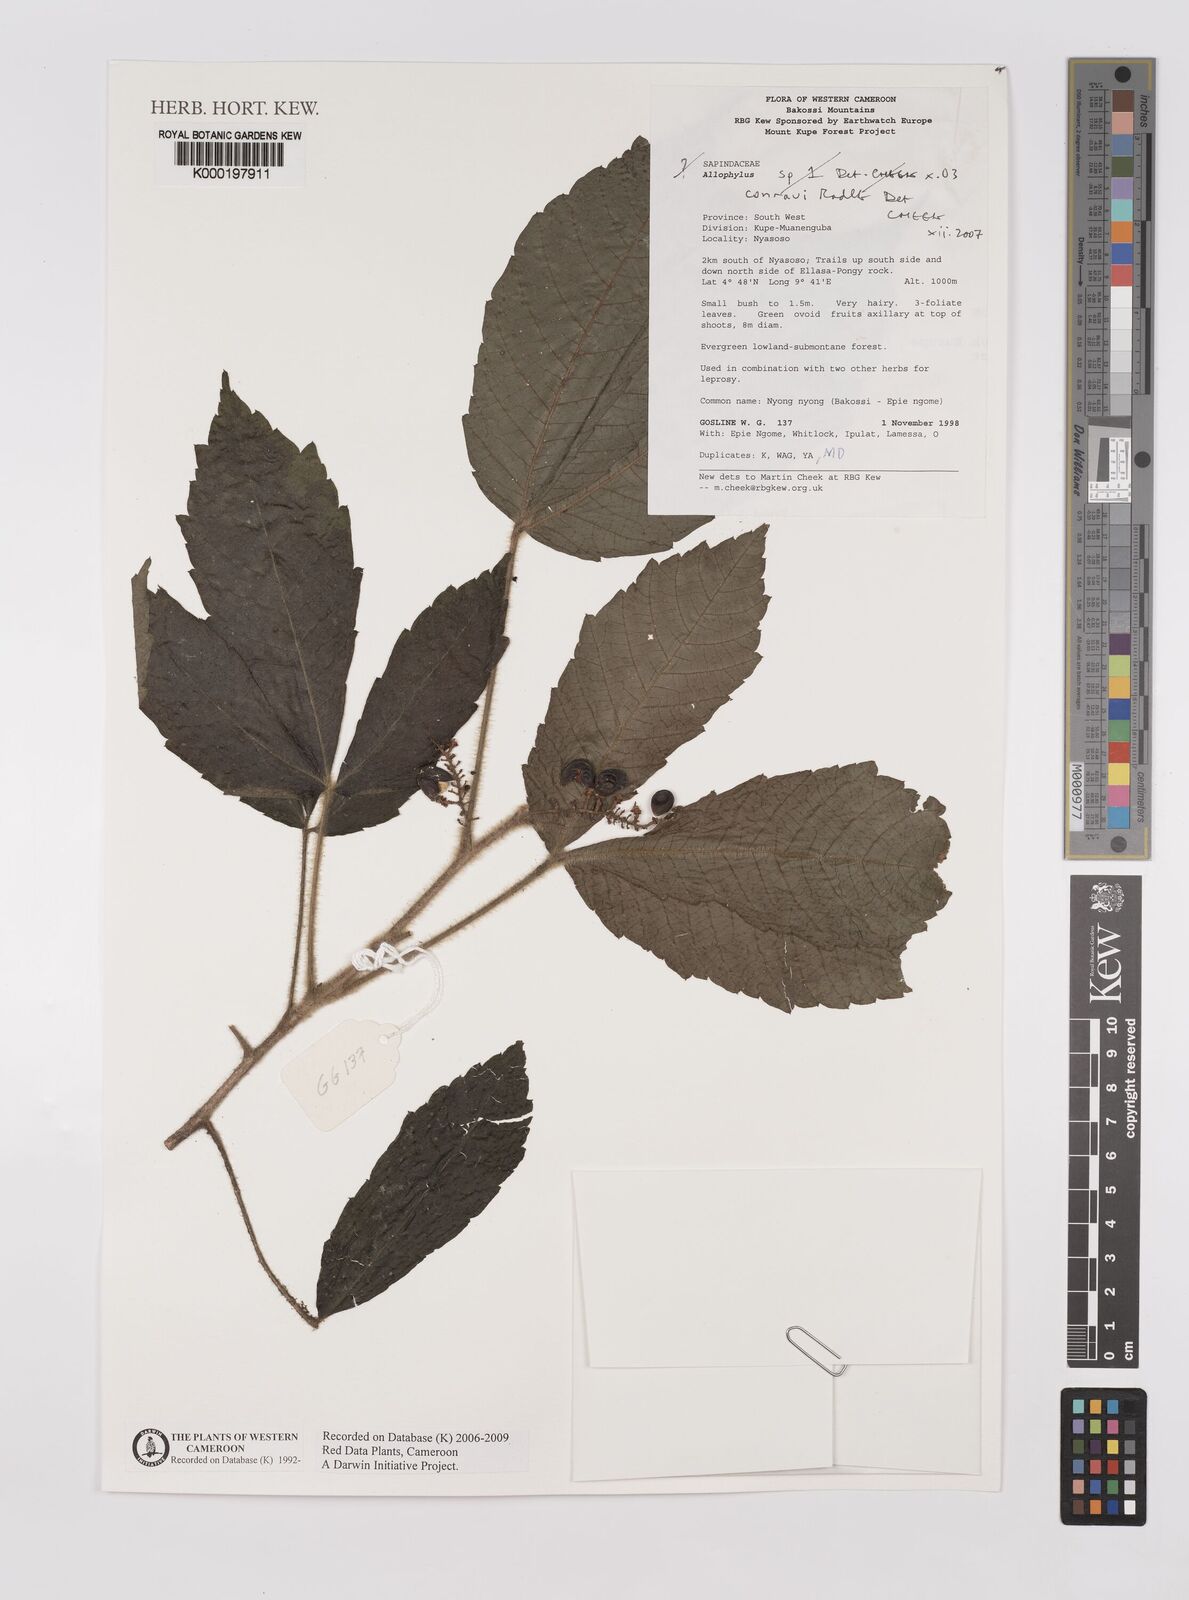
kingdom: Plantae
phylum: Tracheophyta
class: Magnoliopsida
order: Sapindales
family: Sapindaceae
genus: Allophylus
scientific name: Allophylus conraui
